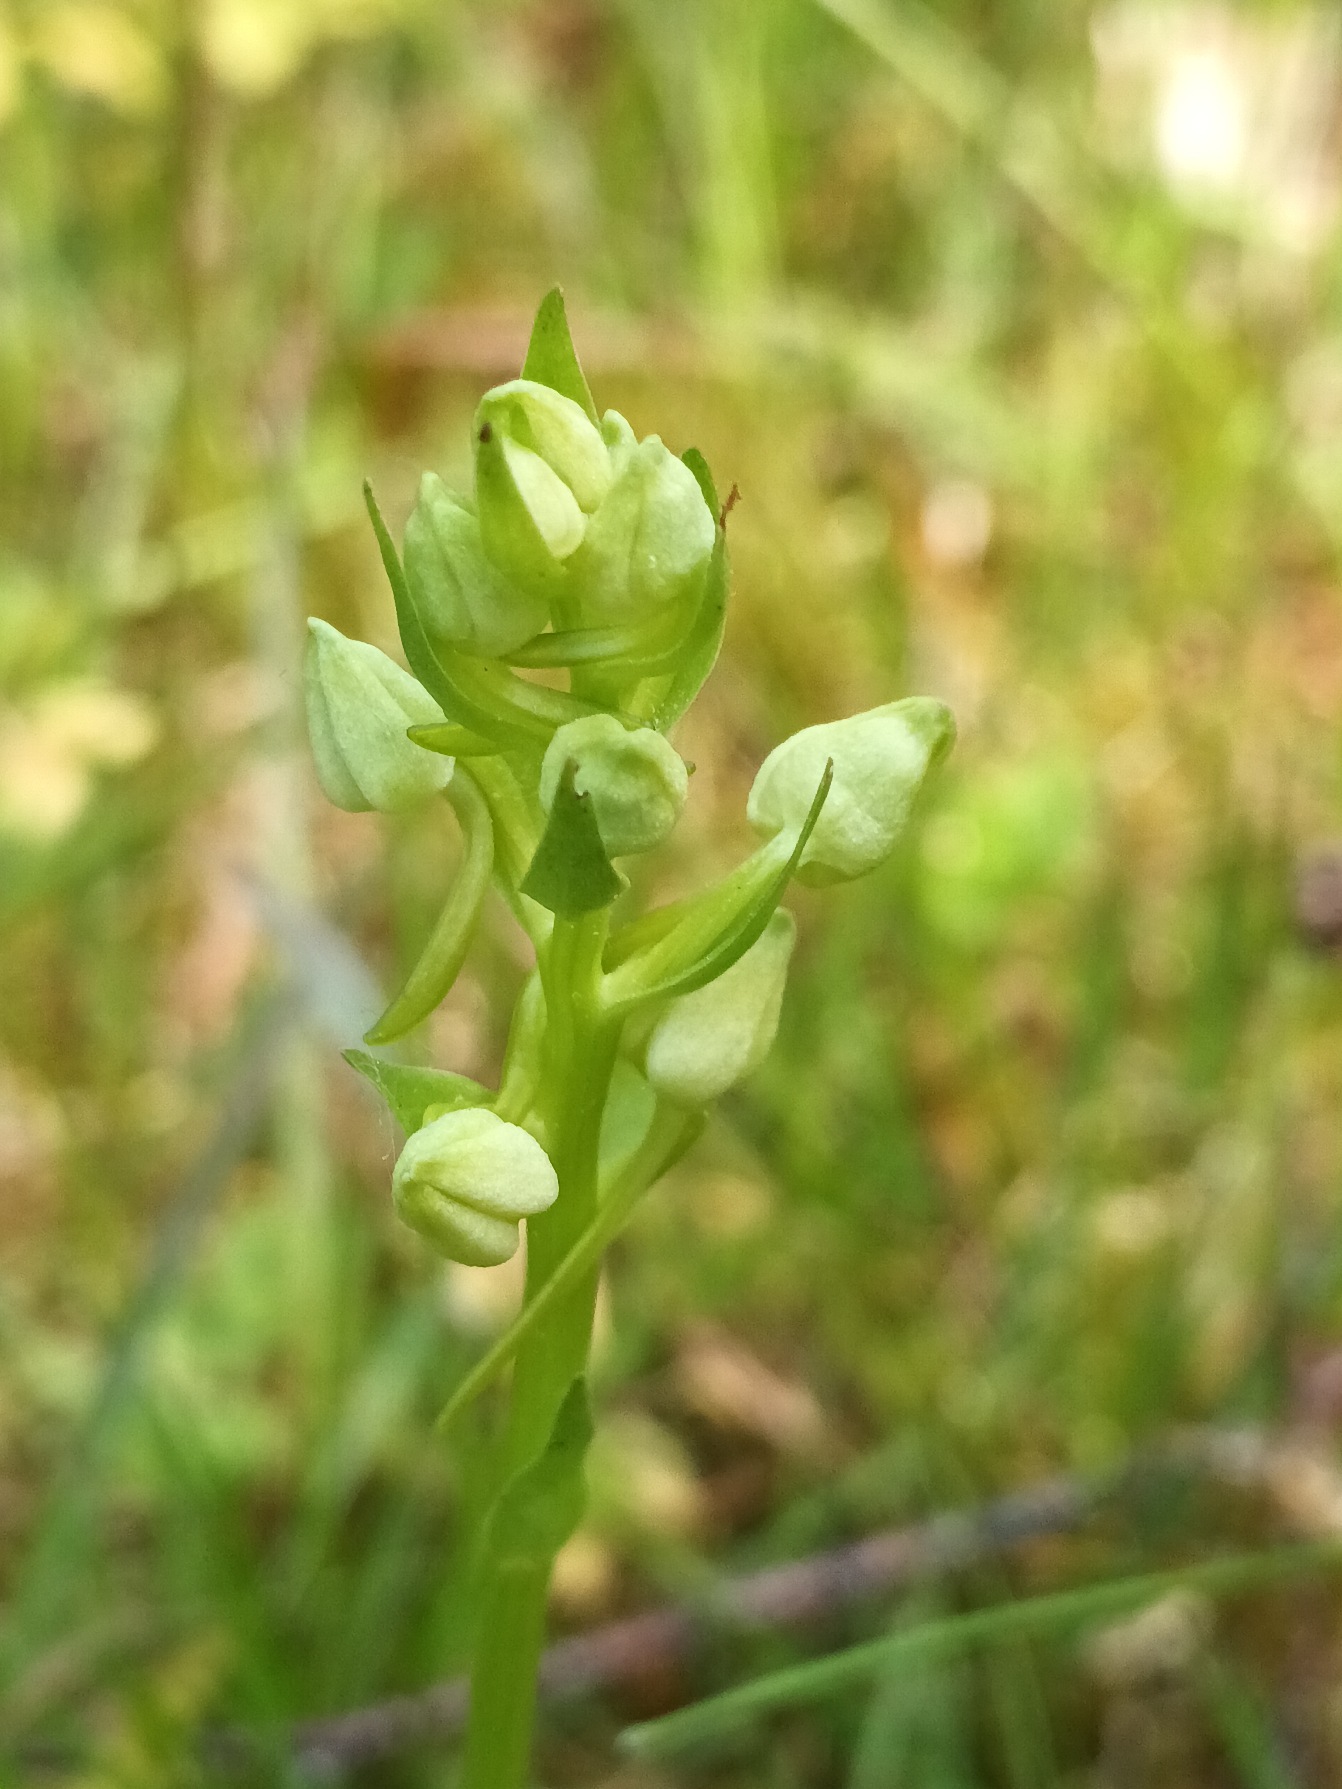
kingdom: Plantae
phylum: Tracheophyta
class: Liliopsida
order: Asparagales
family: Orchidaceae
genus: Platanthera
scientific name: Platanthera chlorantha
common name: Skov-gøgelilje
